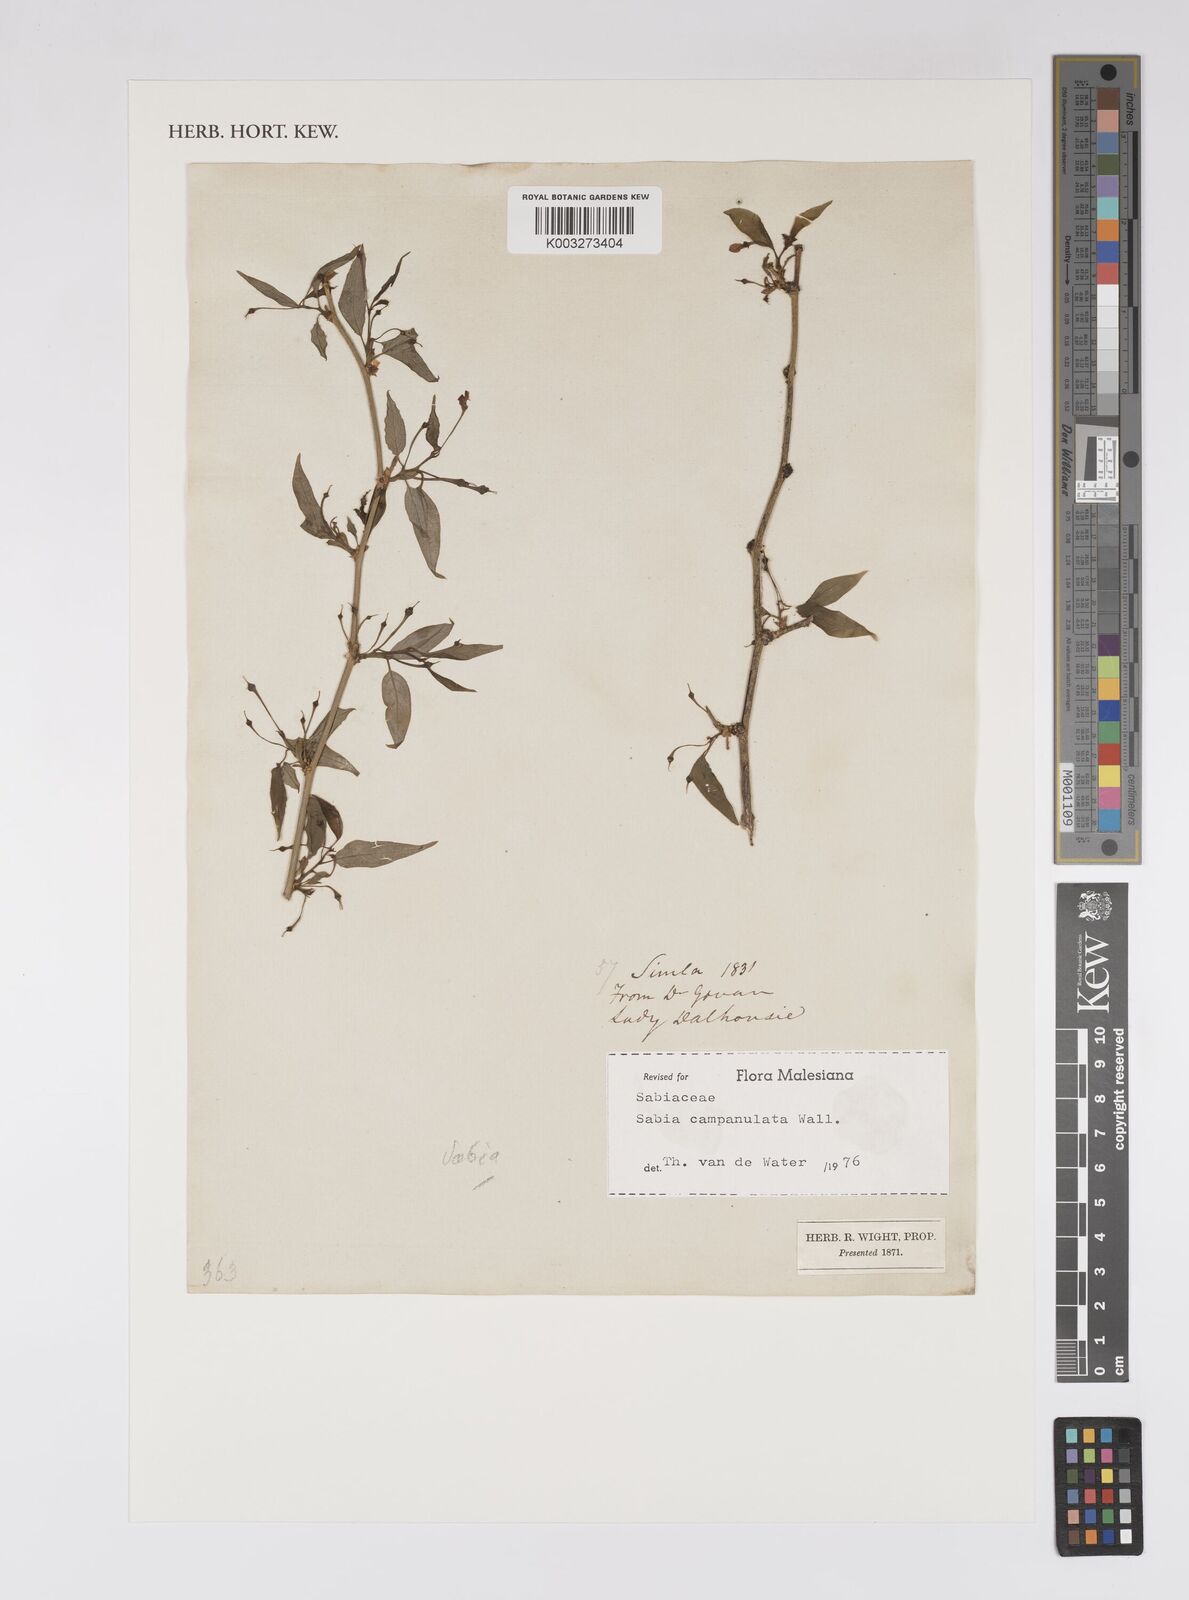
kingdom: Plantae
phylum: Tracheophyta
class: Magnoliopsida
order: Proteales
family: Sabiaceae
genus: Sabia
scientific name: Sabia campanulata
